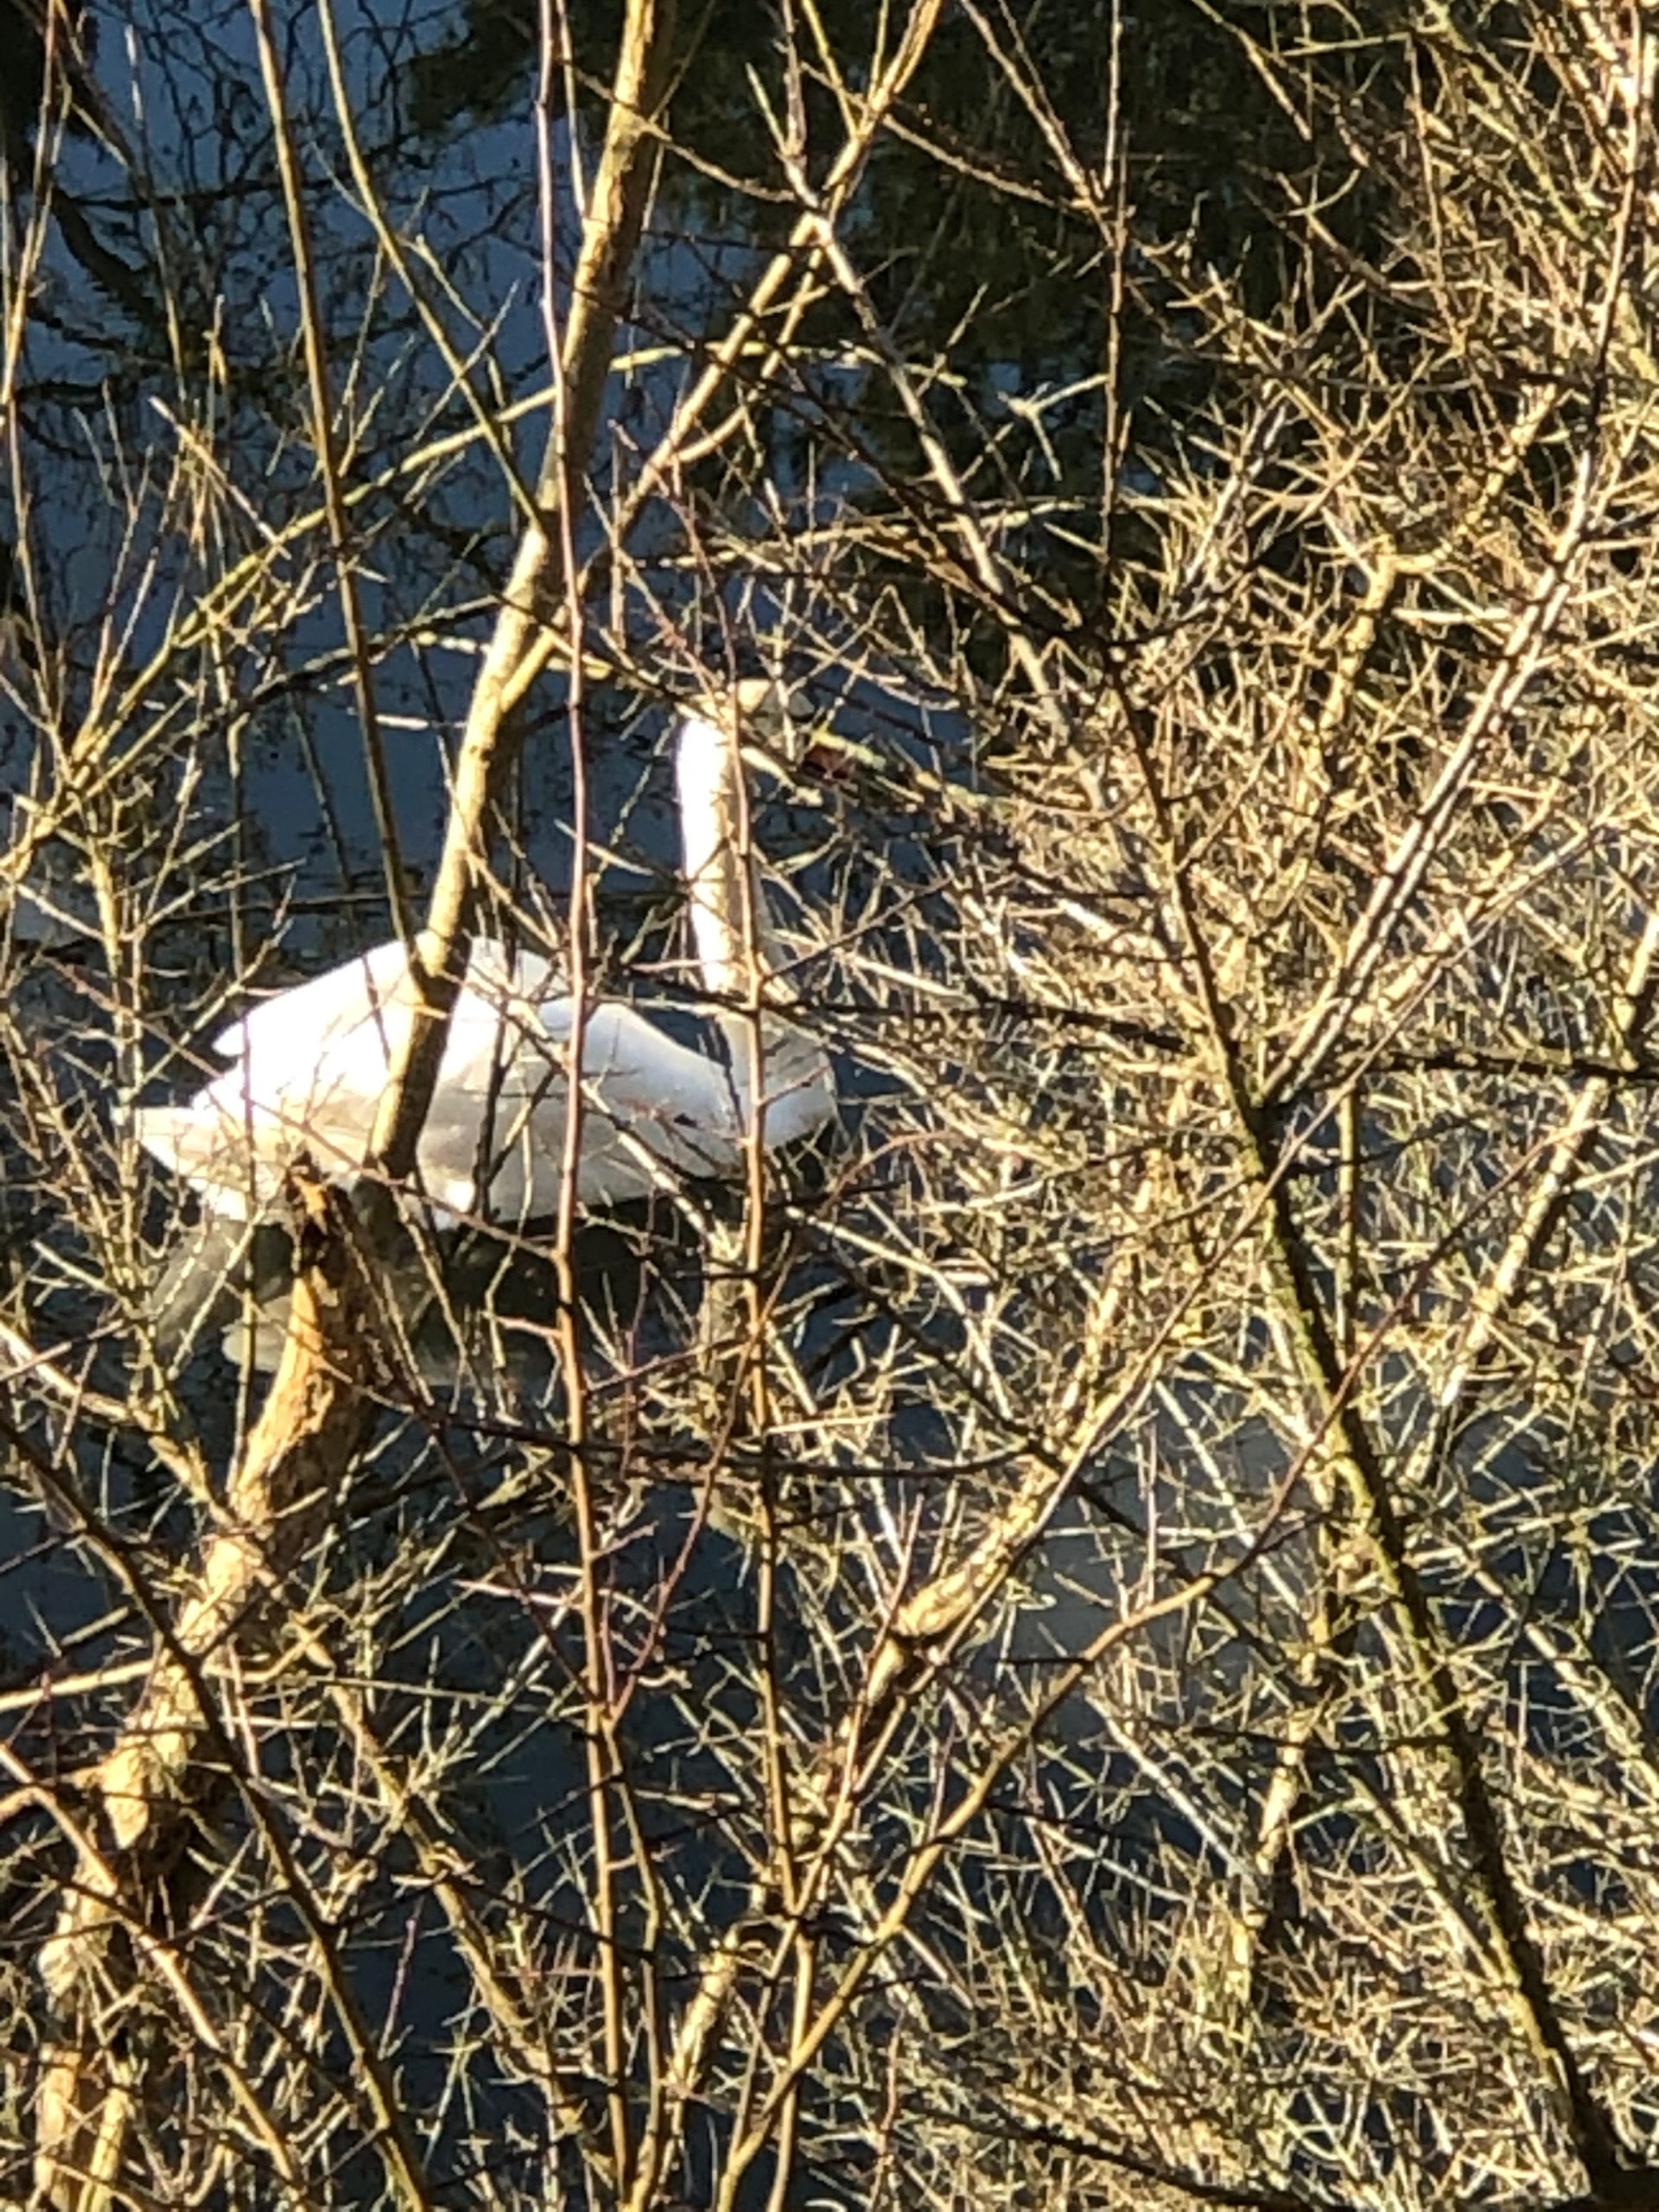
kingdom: Animalia
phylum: Chordata
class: Aves
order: Anseriformes
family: Anatidae
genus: Cygnus
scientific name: Cygnus olor
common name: Knopsvane
